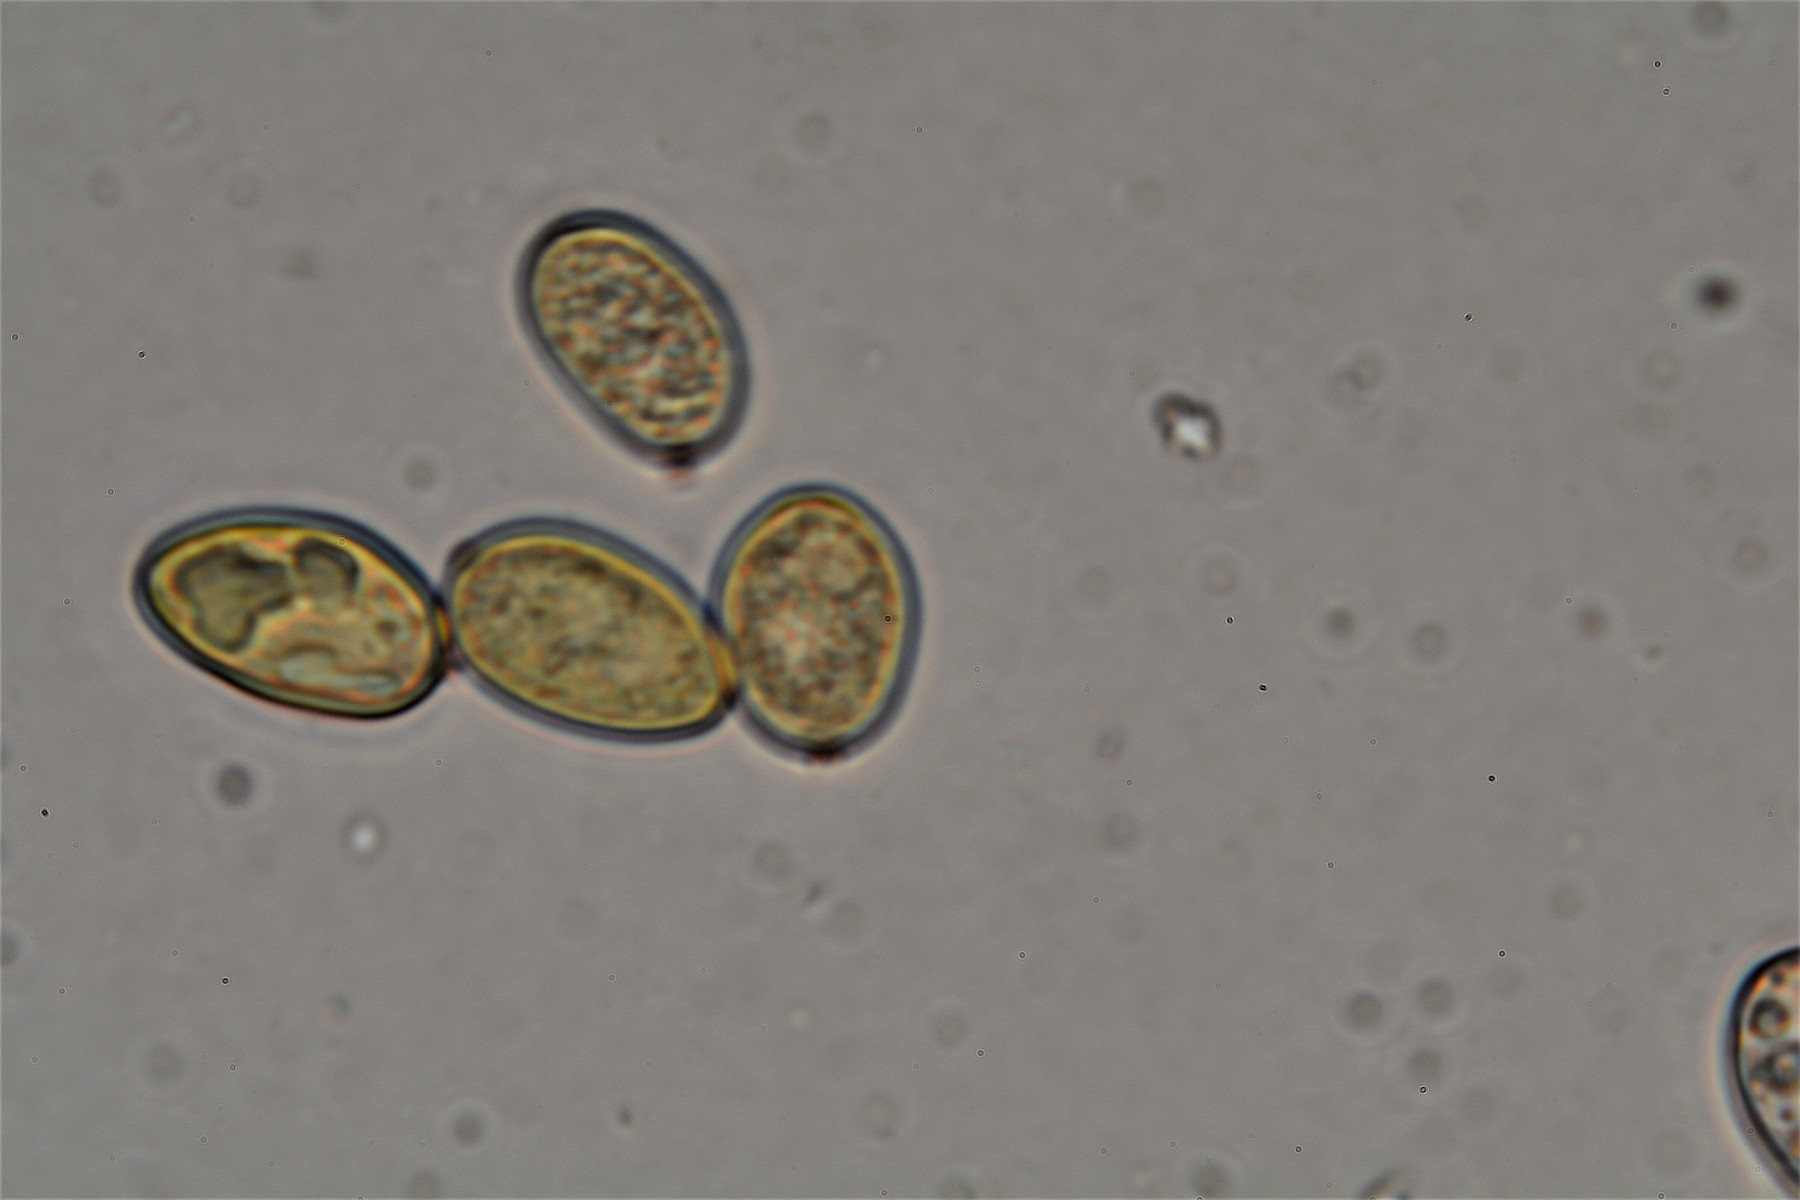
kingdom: Fungi
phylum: Basidiomycota
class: Agaricomycetes
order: Boletales
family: Coniophoraceae
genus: Coniophora
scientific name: Coniophora arida
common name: tynd tømmersvamp
